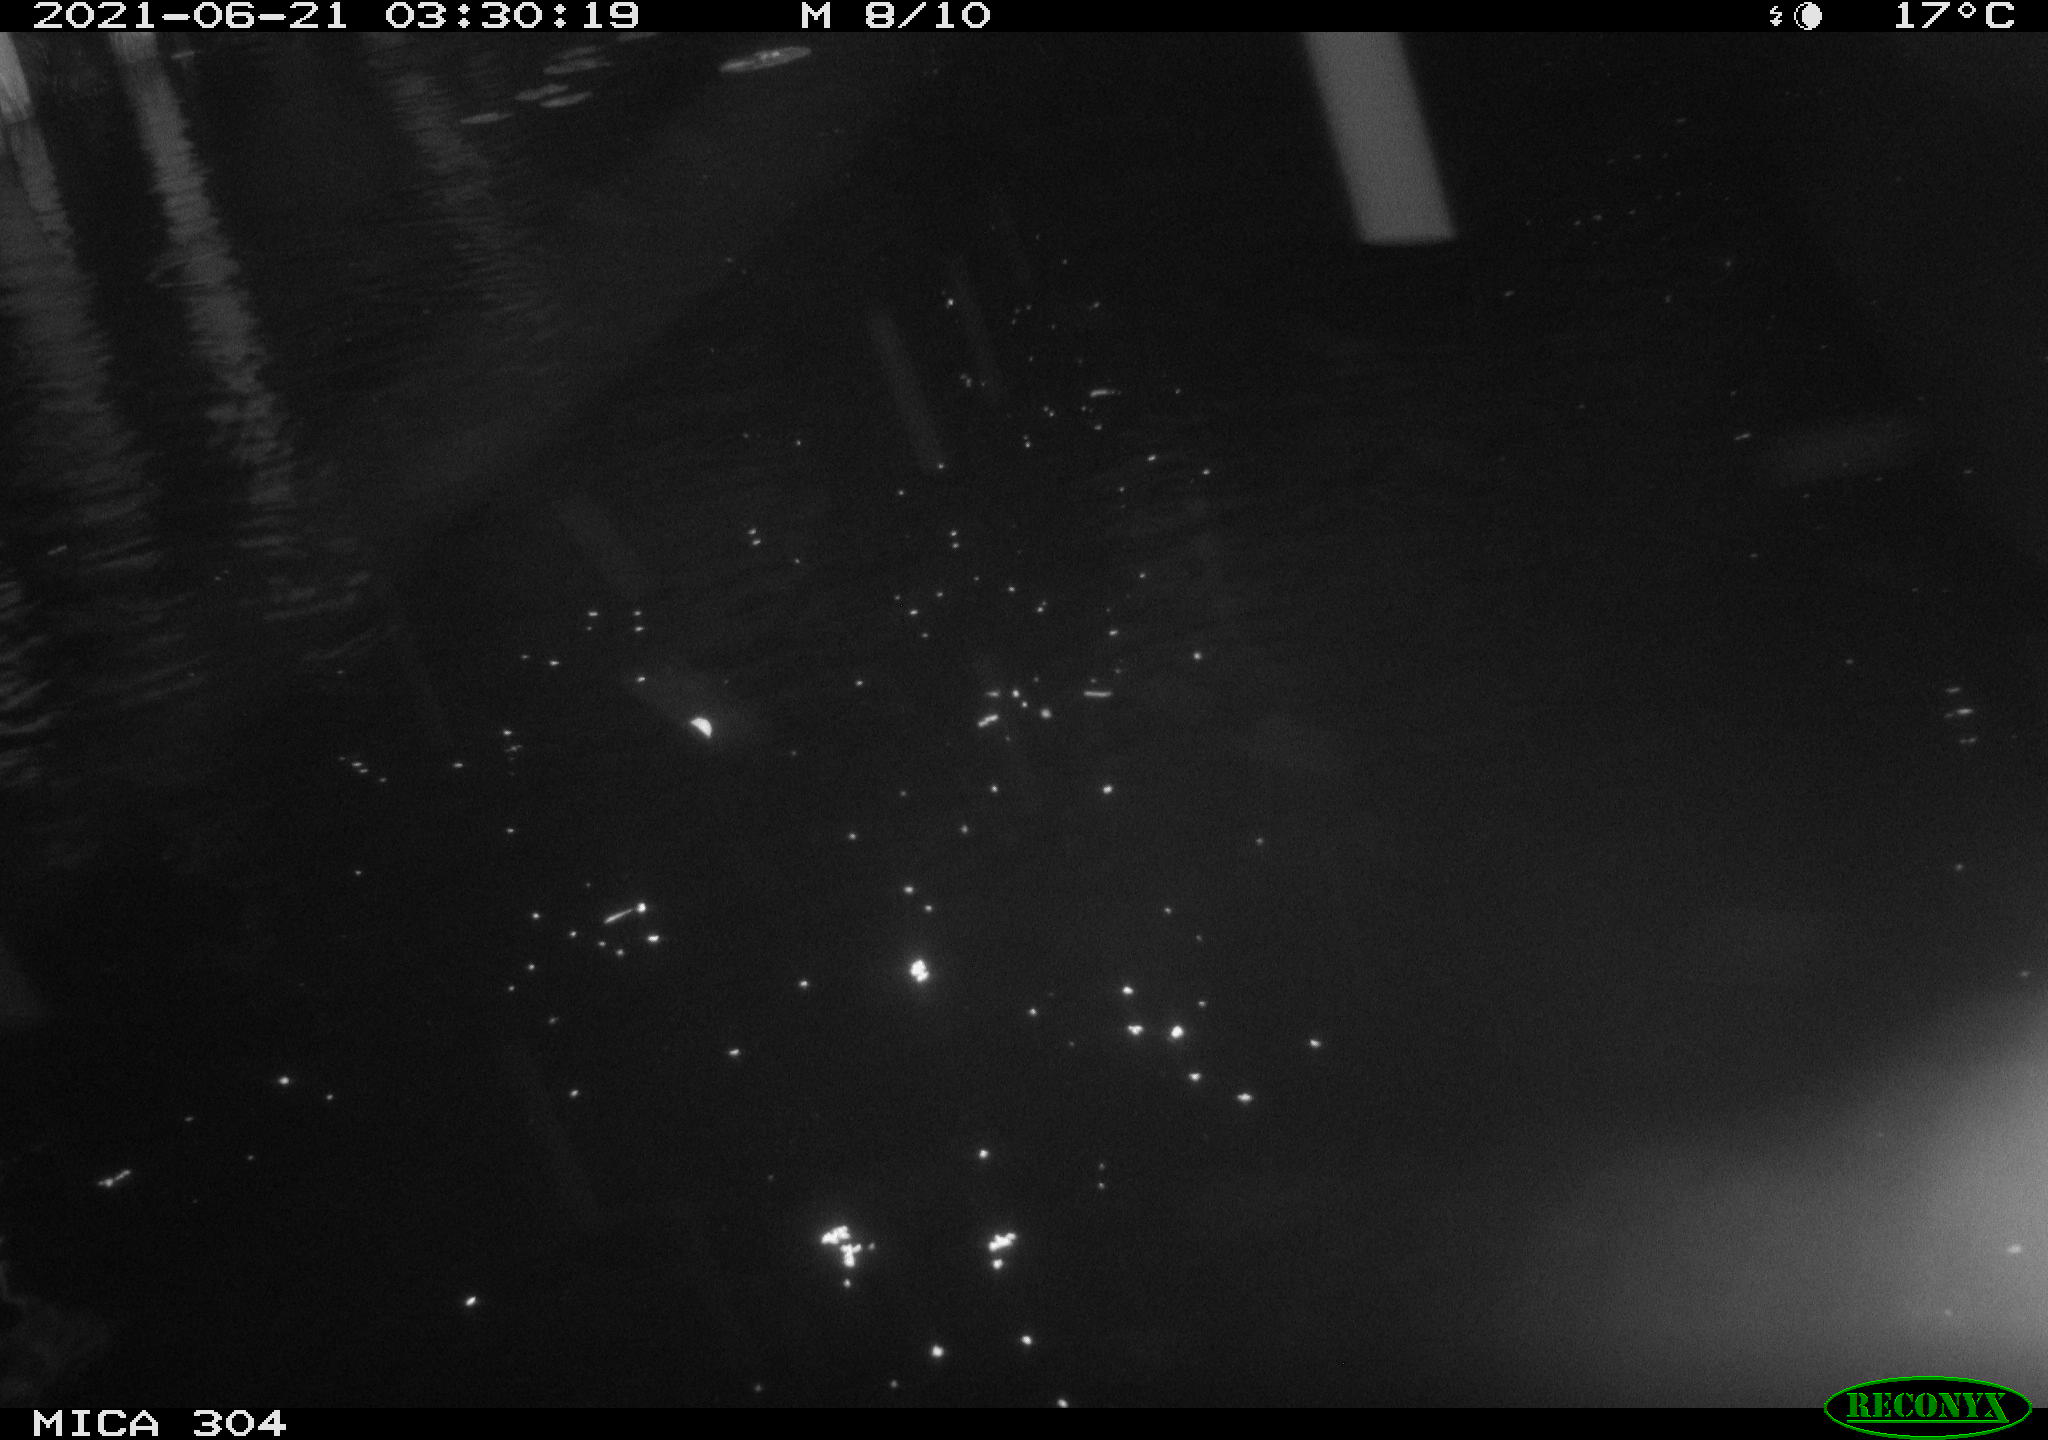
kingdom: Animalia
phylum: Chordata
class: Mammalia
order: Rodentia
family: Cricetidae
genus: Ondatra
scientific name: Ondatra zibethicus
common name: Muskrat
